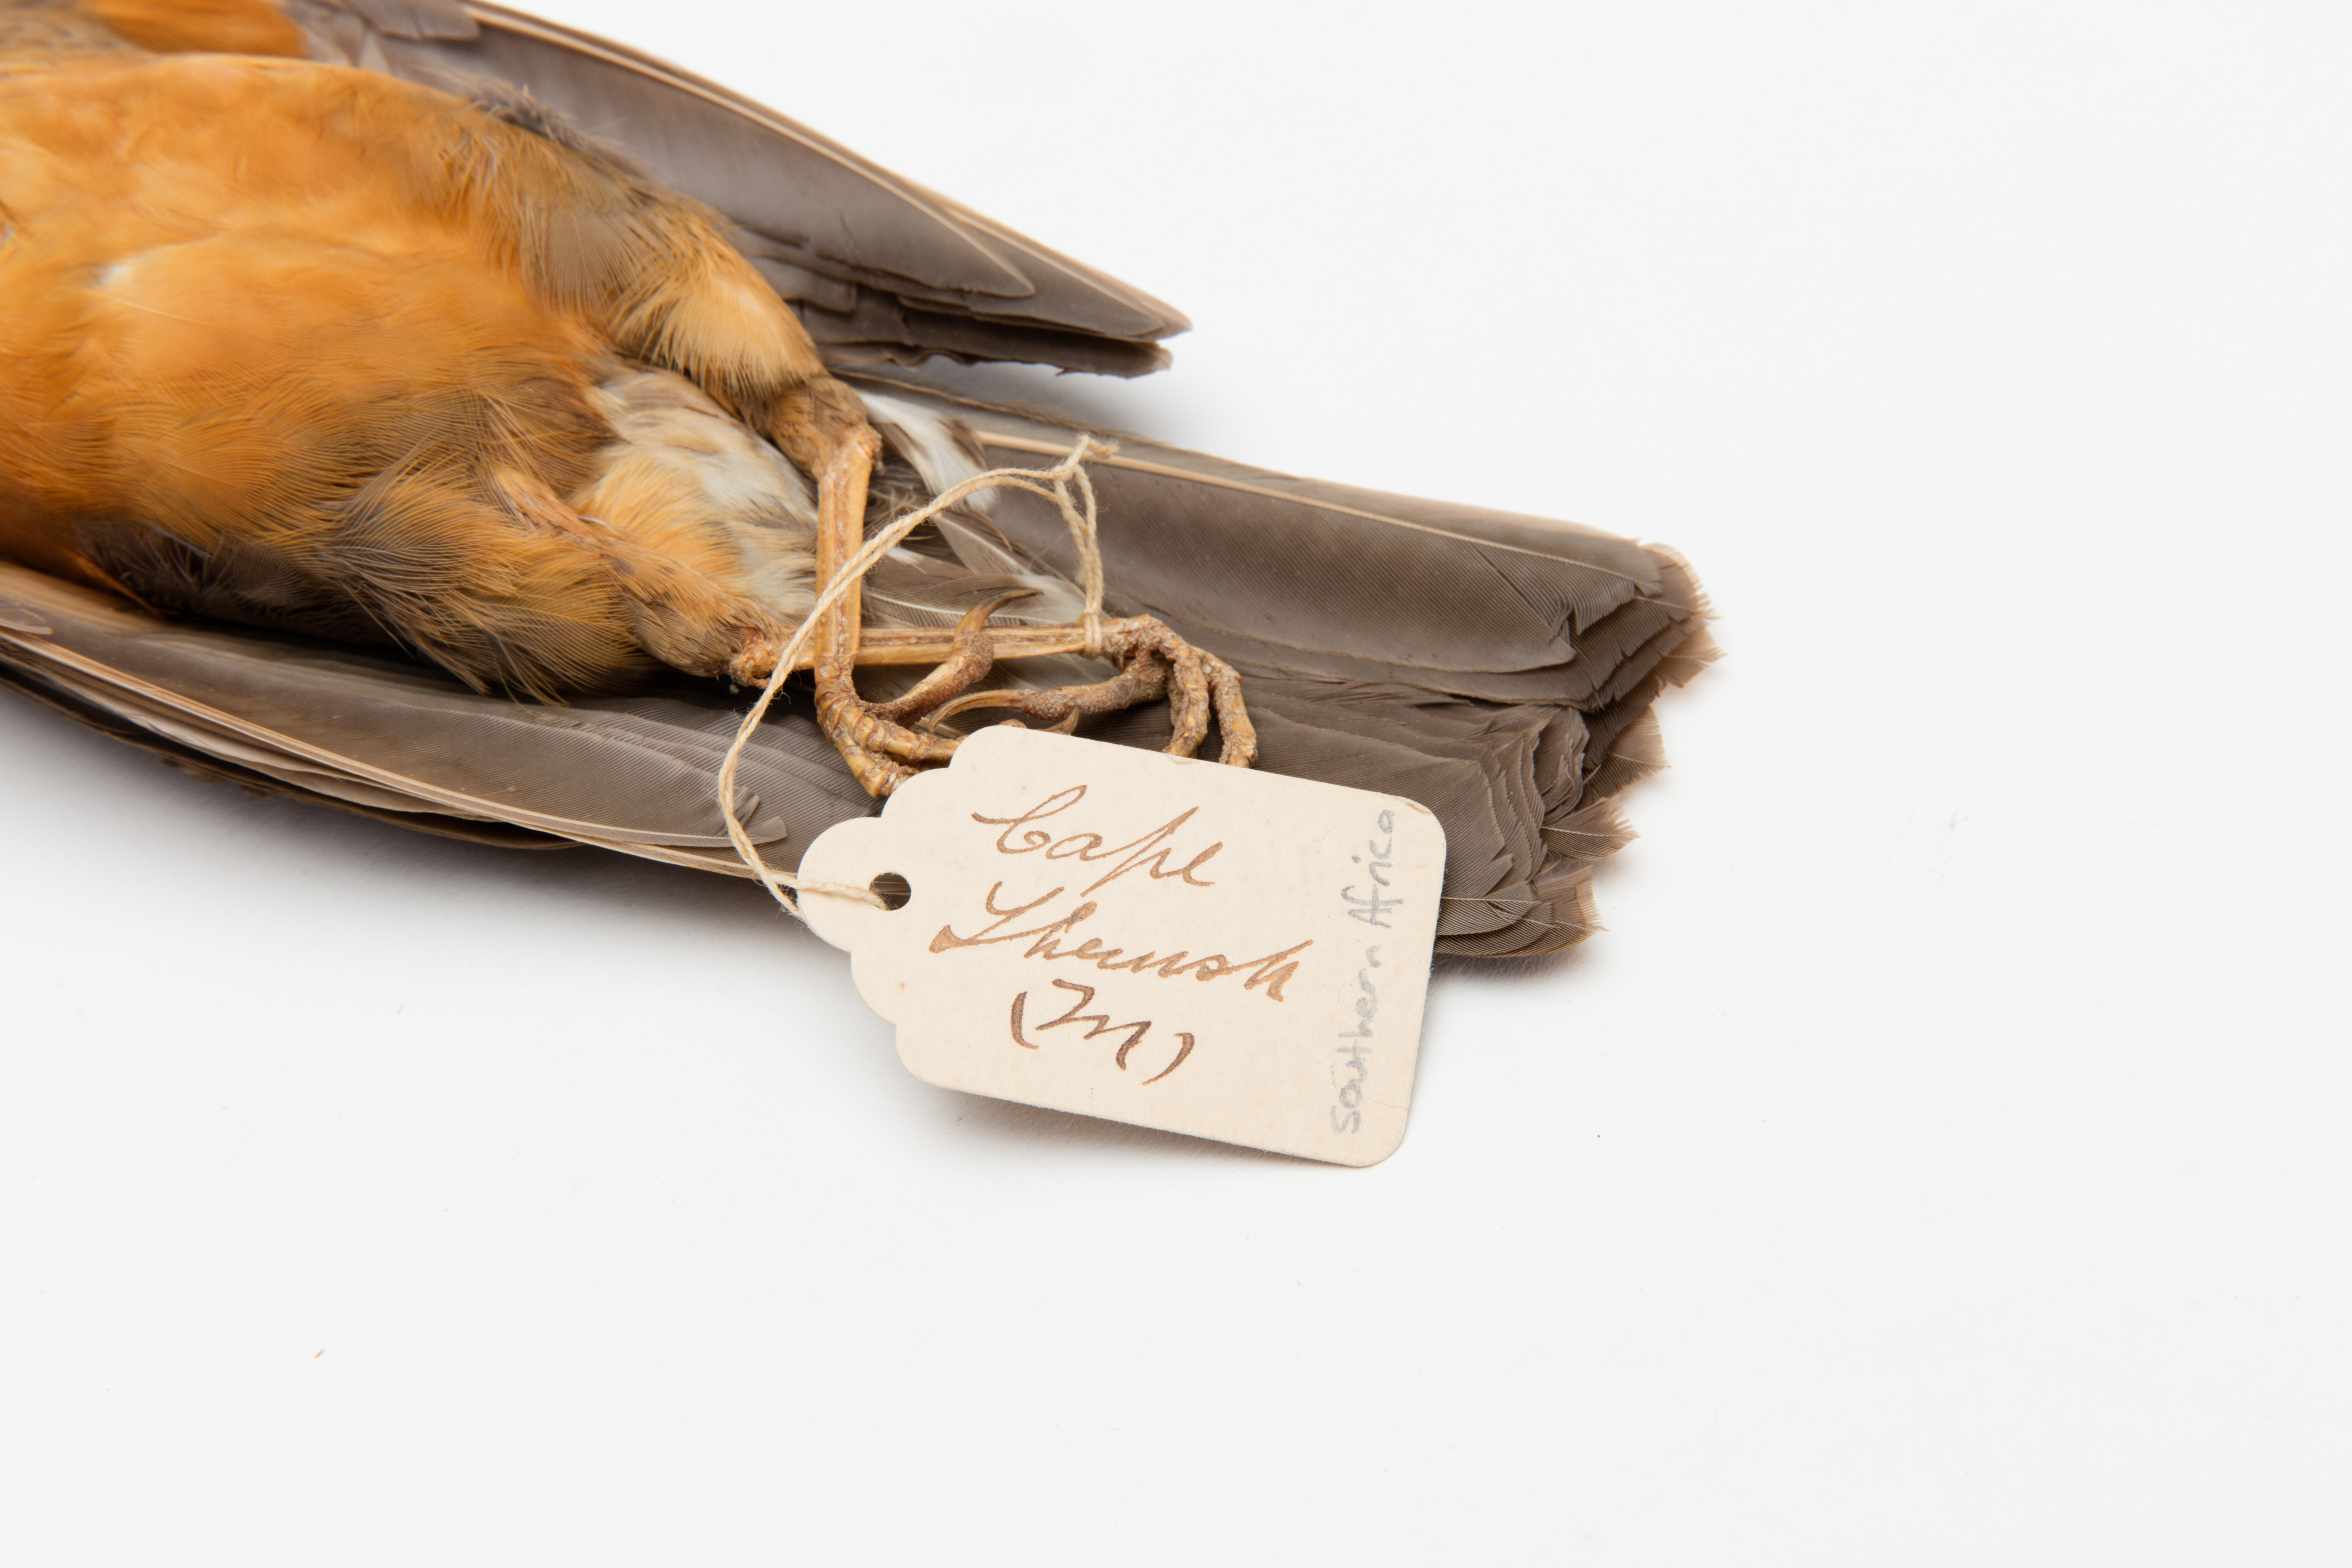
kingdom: Animalia
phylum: Chordata
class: Aves
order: Passeriformes
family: Turdidae
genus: Turdus
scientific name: Turdus olivaceus
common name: Olive thrush
